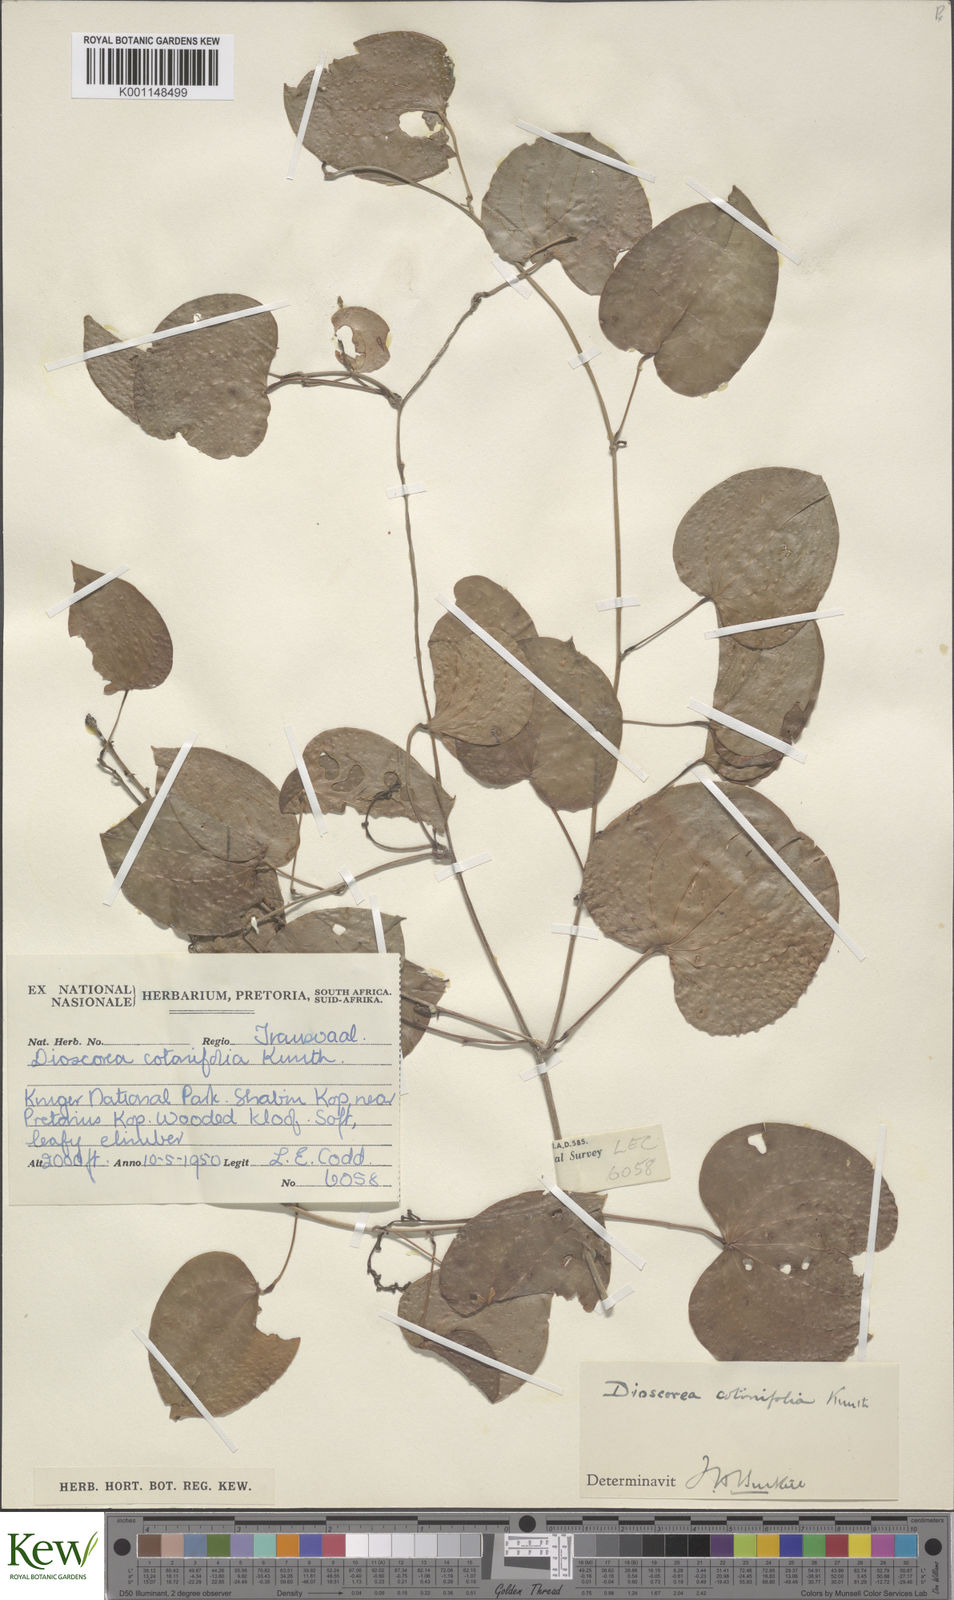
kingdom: Plantae
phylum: Tracheophyta
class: Liliopsida
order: Dioscoreales
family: Dioscoreaceae
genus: Dioscorea
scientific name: Dioscorea cotinifolia
